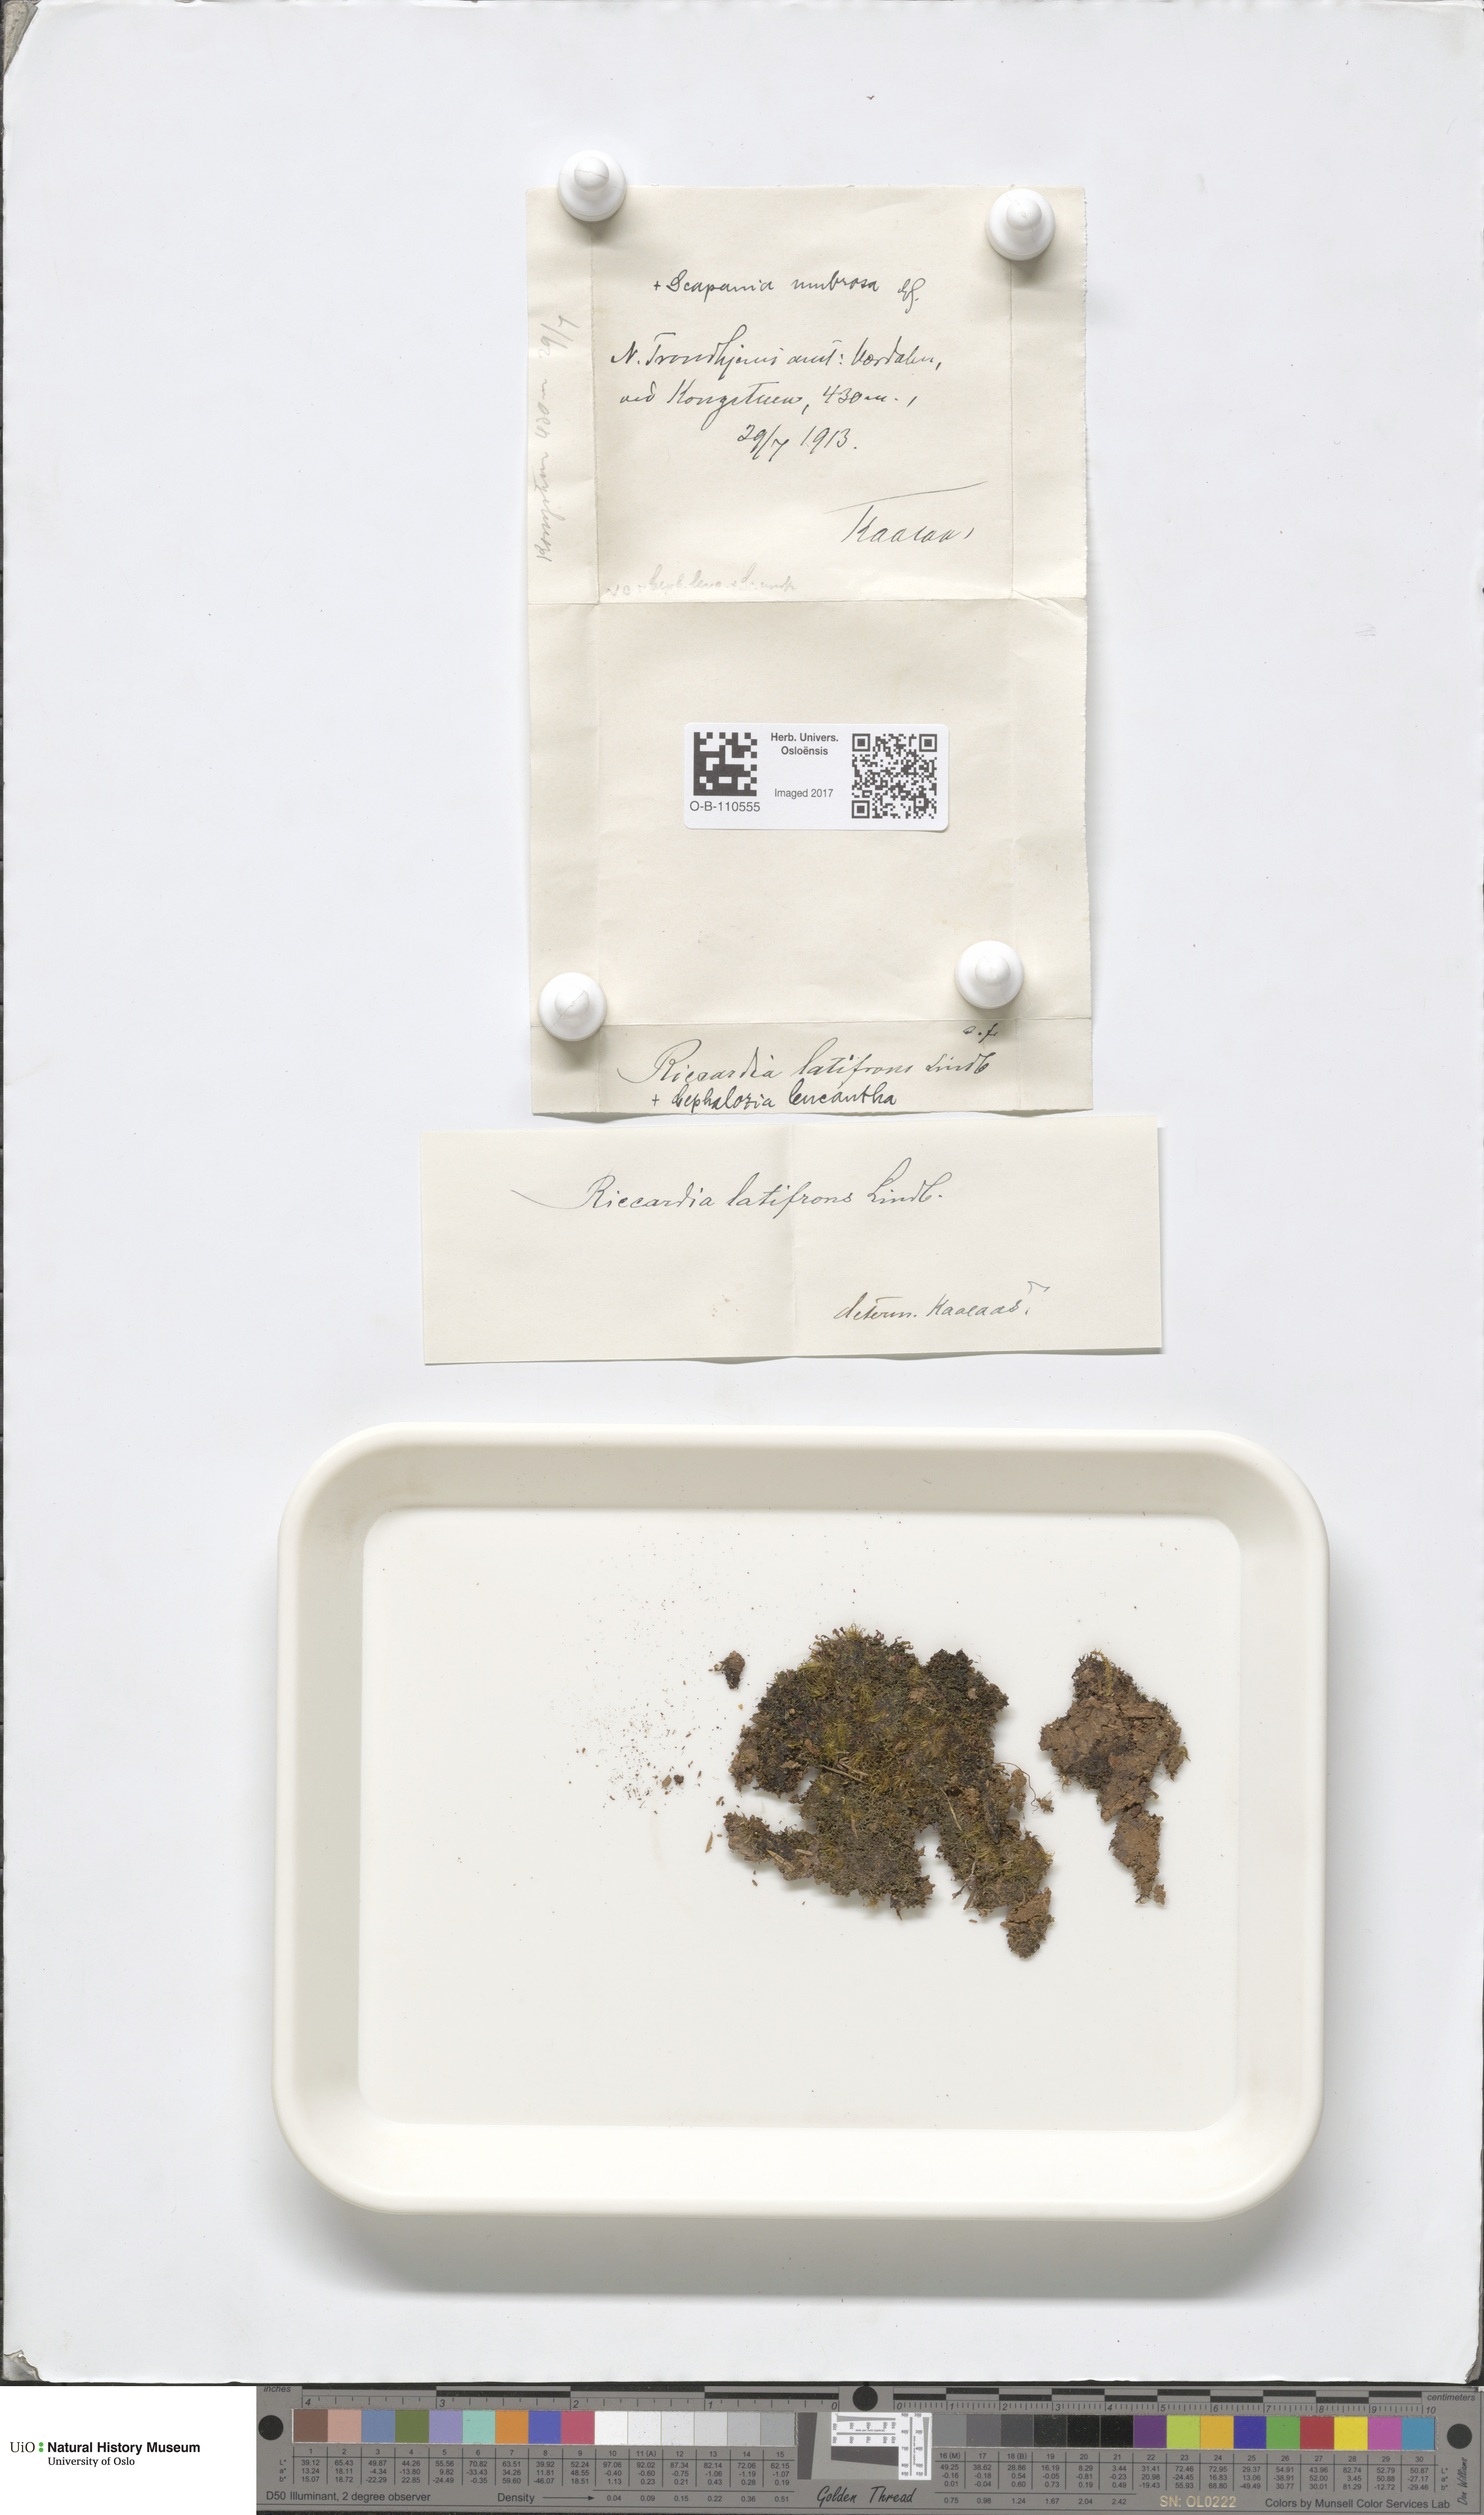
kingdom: Plantae
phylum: Marchantiophyta
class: Jungermanniopsida
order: Metzgeriales
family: Aneuraceae
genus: Riccardia
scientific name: Riccardia latifrons
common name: Bog germanderwort
